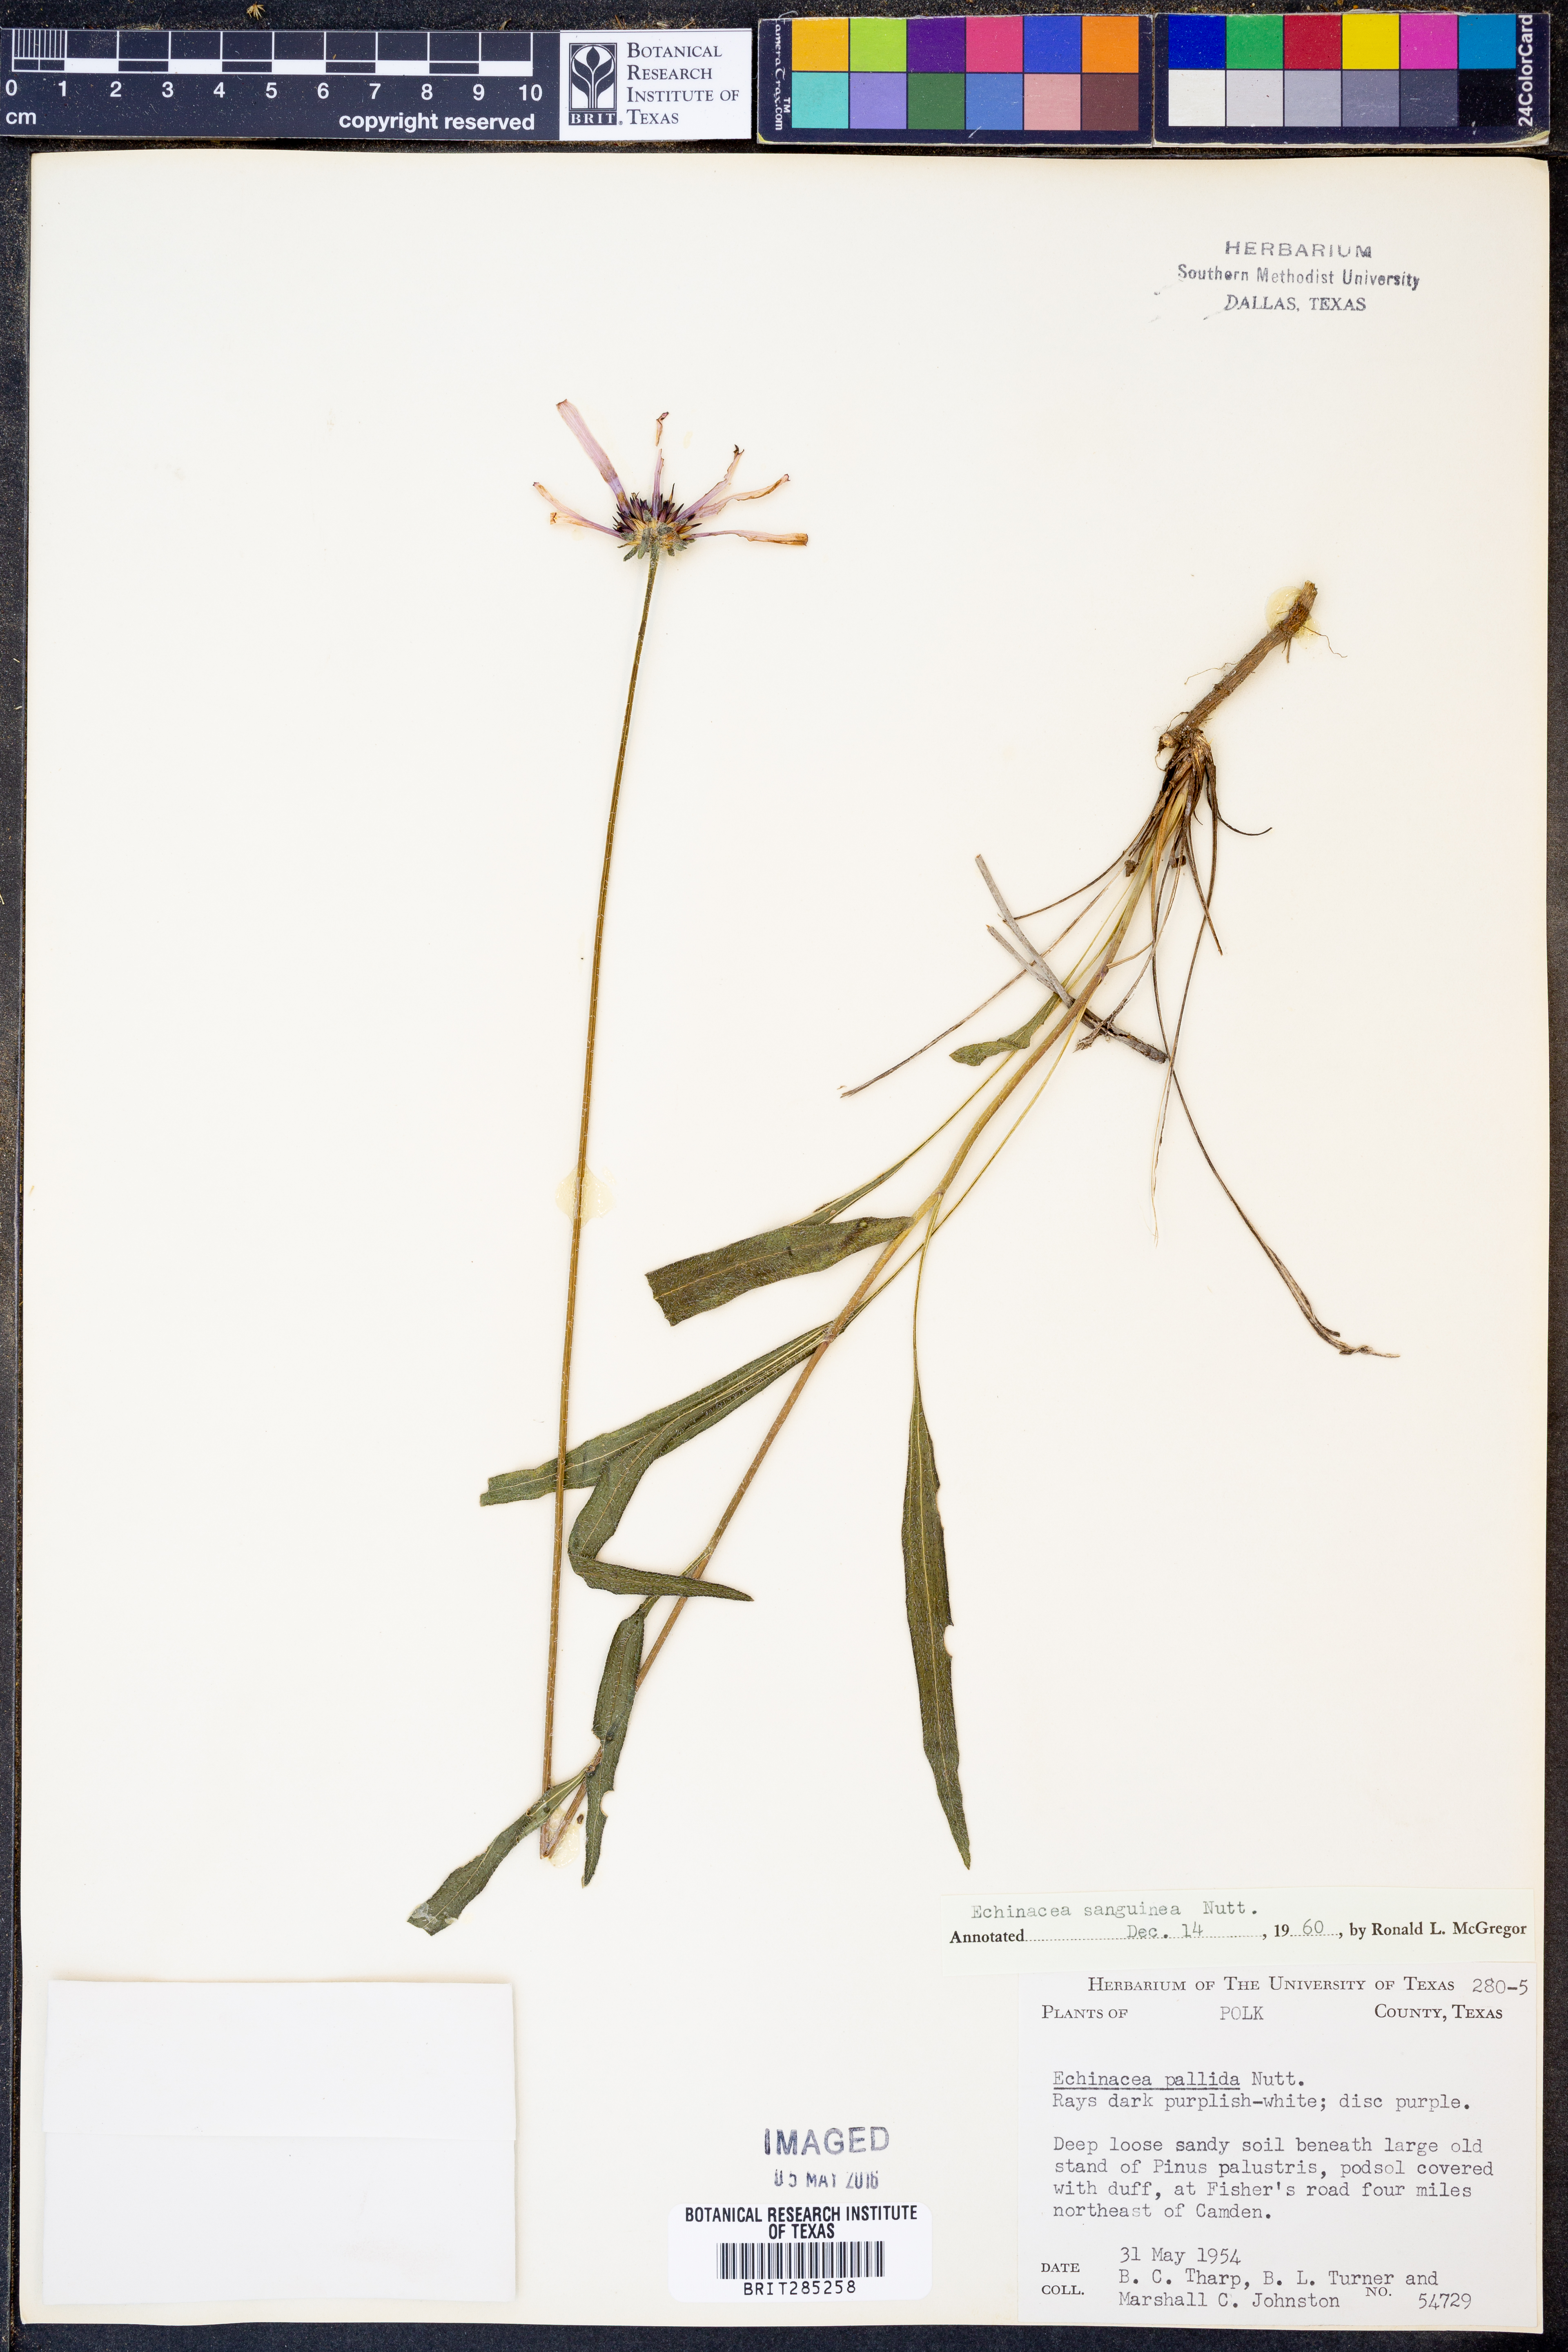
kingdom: Plantae
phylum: Tracheophyta
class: Magnoliopsida
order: Asterales
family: Asteraceae
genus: Echinacea
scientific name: Echinacea sanguinea
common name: Sanguine purple-coneflower
